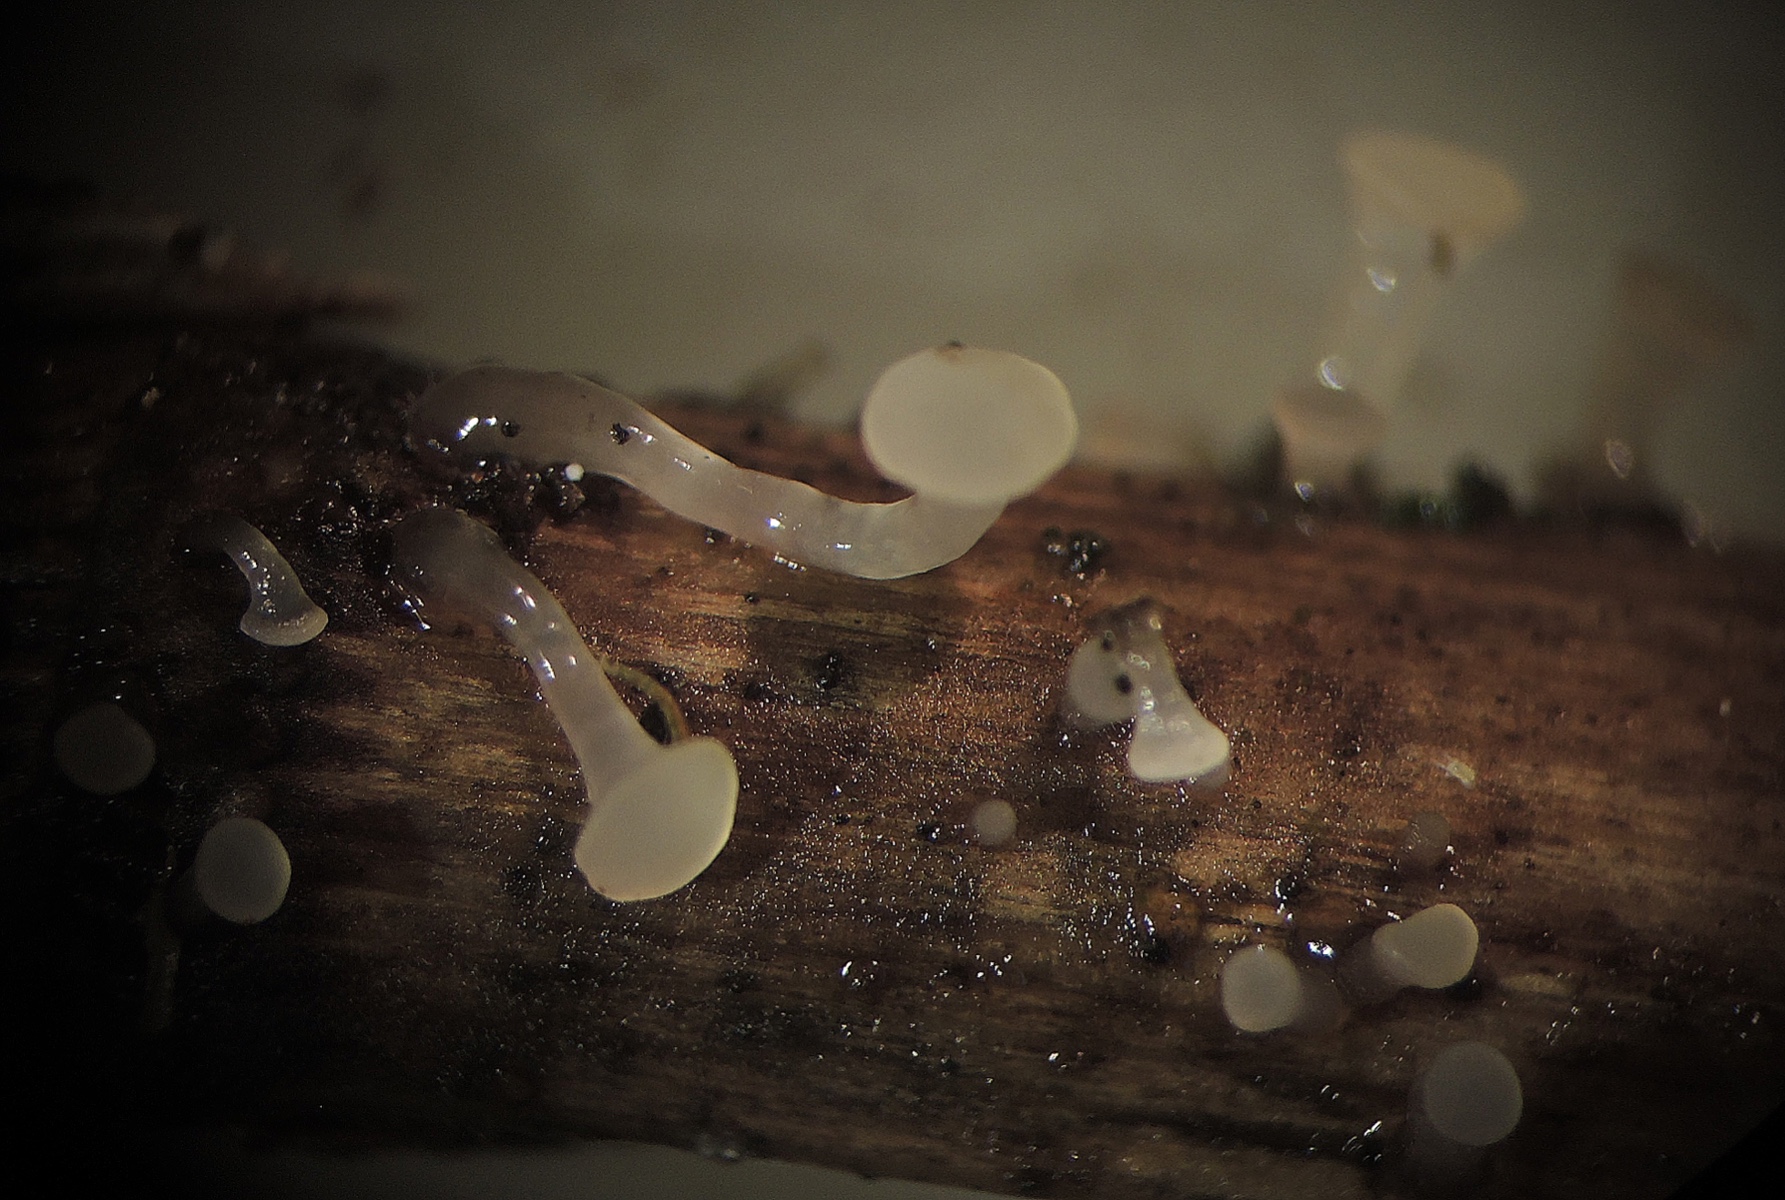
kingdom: Fungi
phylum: Ascomycota
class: Leotiomycetes
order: Helotiales
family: Gelatinodiscaceae
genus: Ombrophila
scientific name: Ombrophila ambigua
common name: sødgræs-bævreskive
